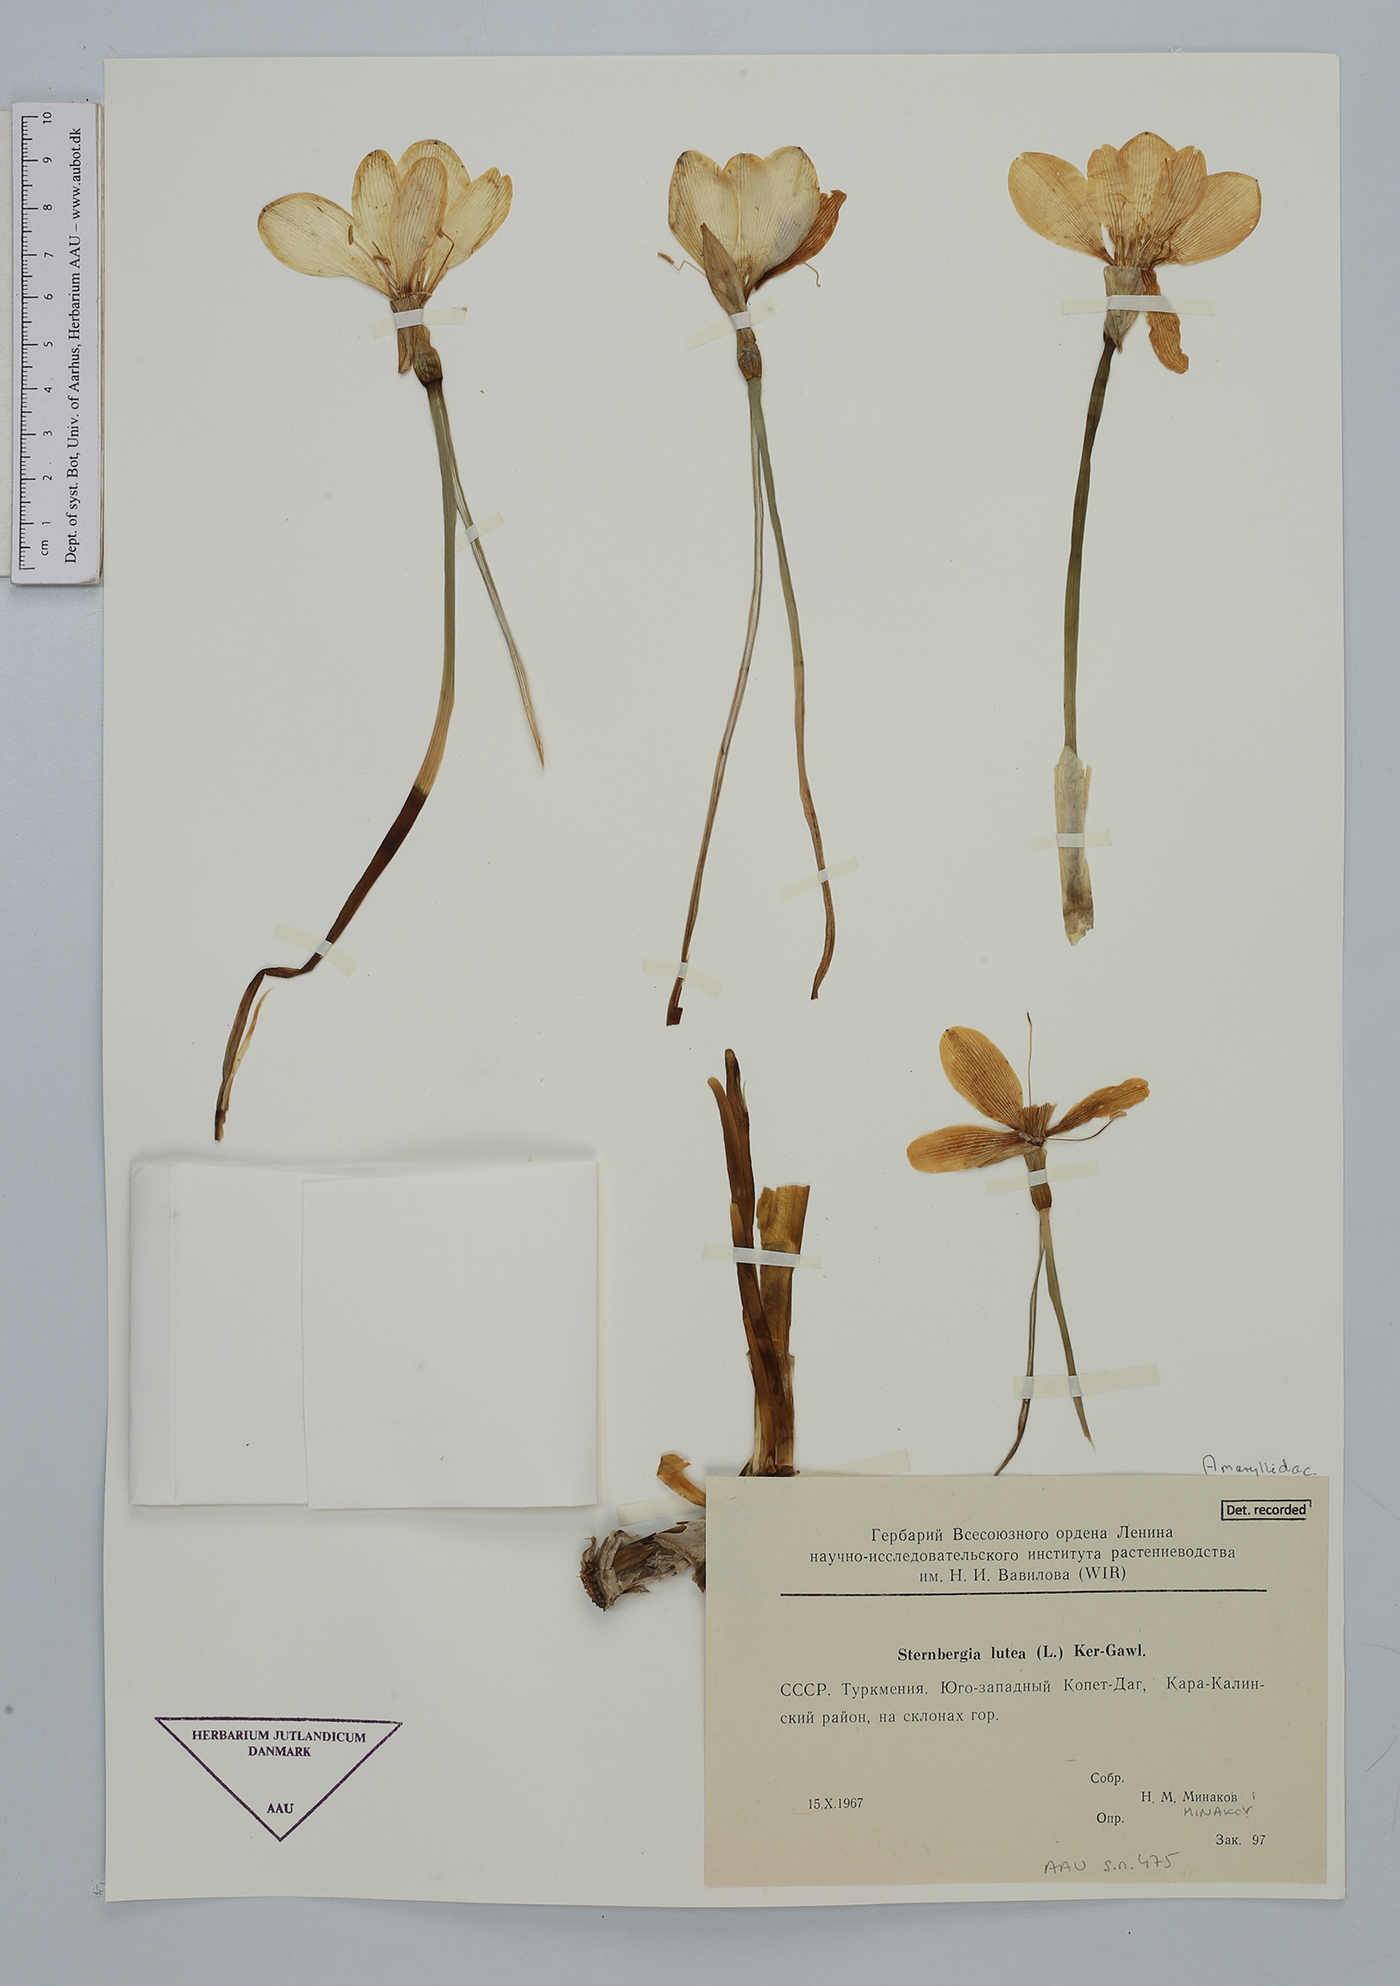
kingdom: Plantae
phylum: Tracheophyta
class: Liliopsida
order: Asparagales
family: Amaryllidaceae
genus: Sternbergia
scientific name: Sternbergia lutea
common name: Winter daffodil
